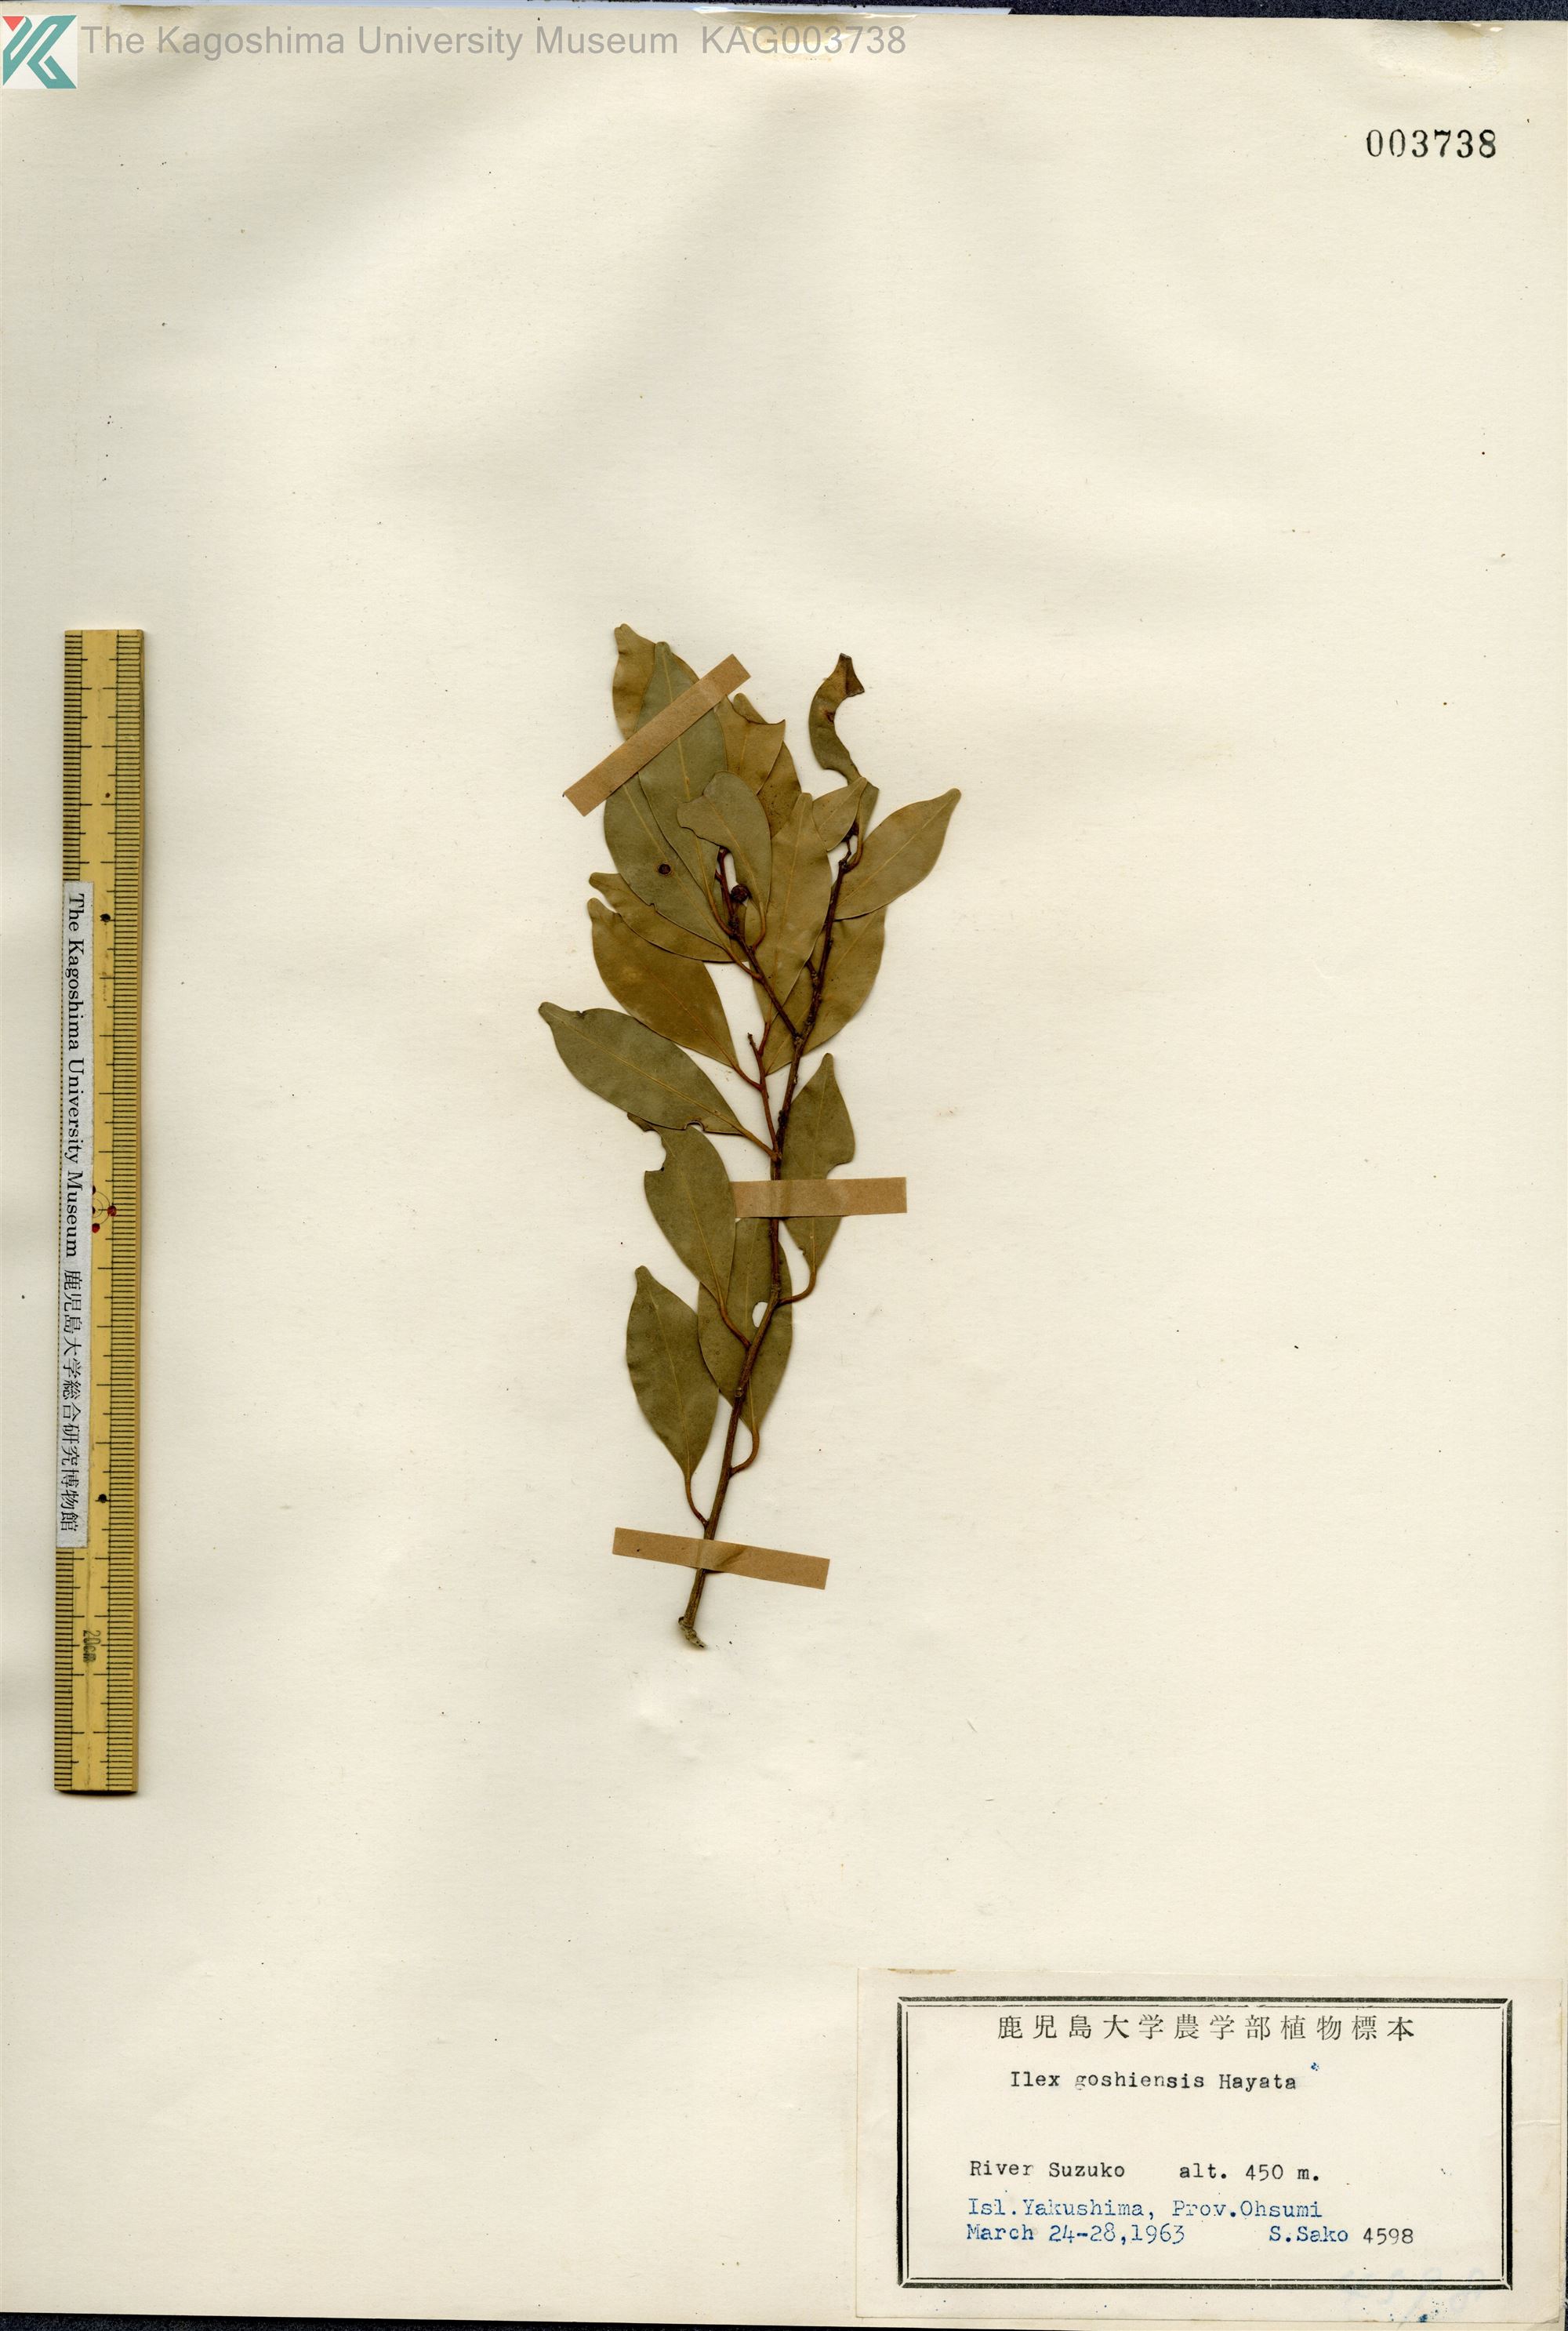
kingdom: Plantae
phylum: Tracheophyta
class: Magnoliopsida
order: Aquifoliales
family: Aquifoliaceae
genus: Ilex
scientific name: Ilex goshiensis
